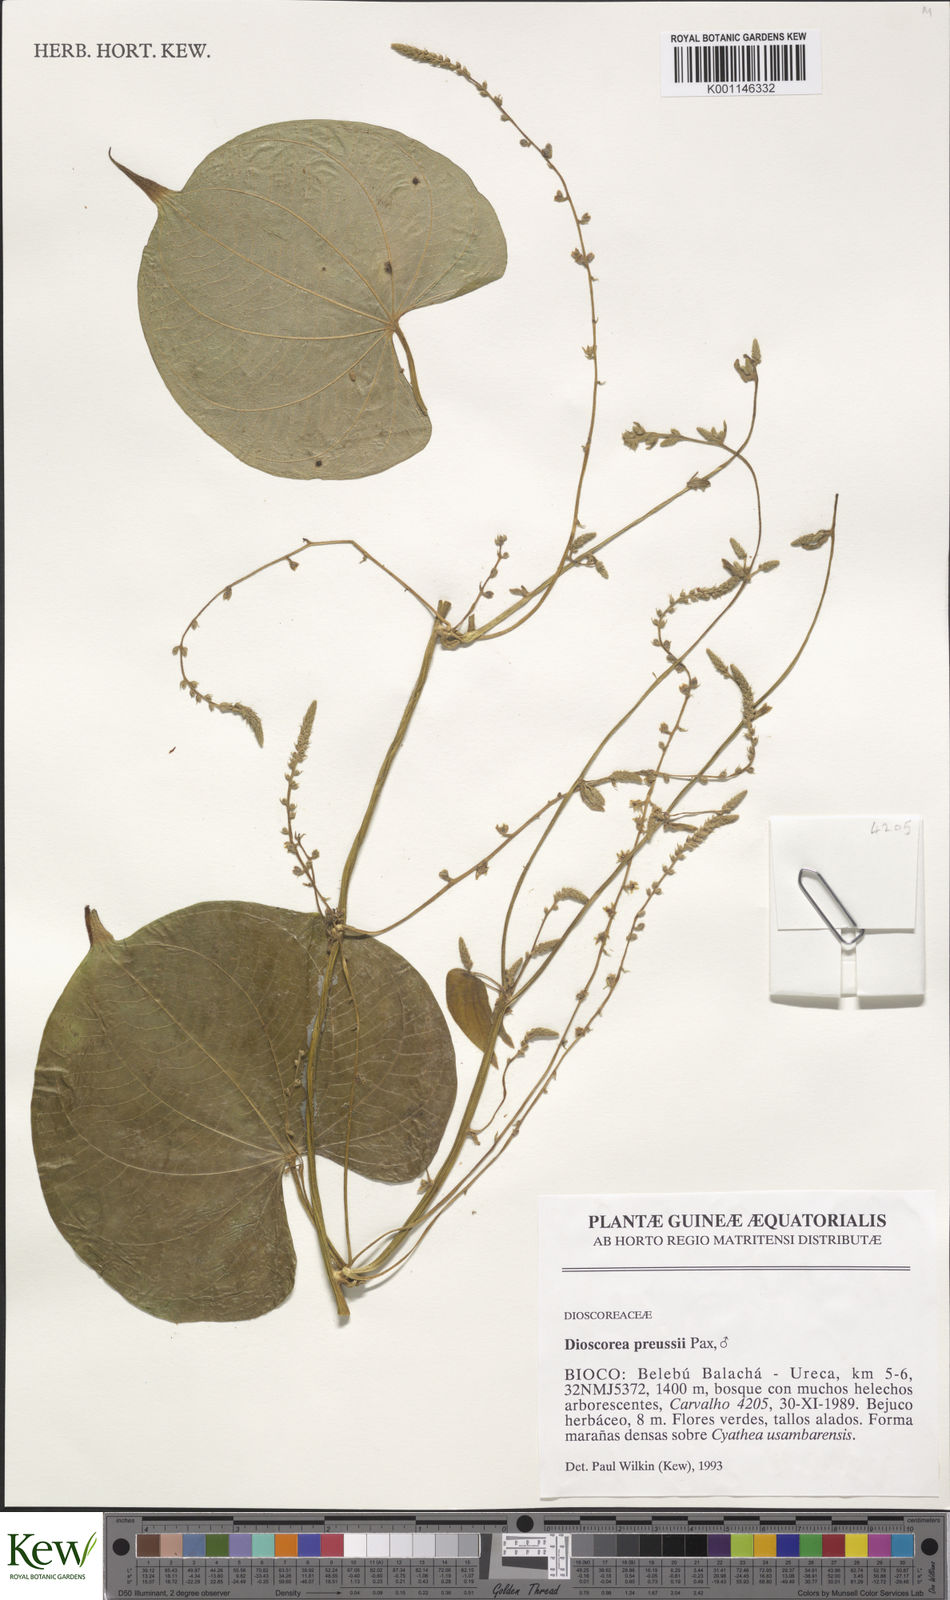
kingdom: Plantae
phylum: Tracheophyta
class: Liliopsida
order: Dioscoreales
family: Dioscoreaceae
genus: Dioscorea
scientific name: Dioscorea preussii
